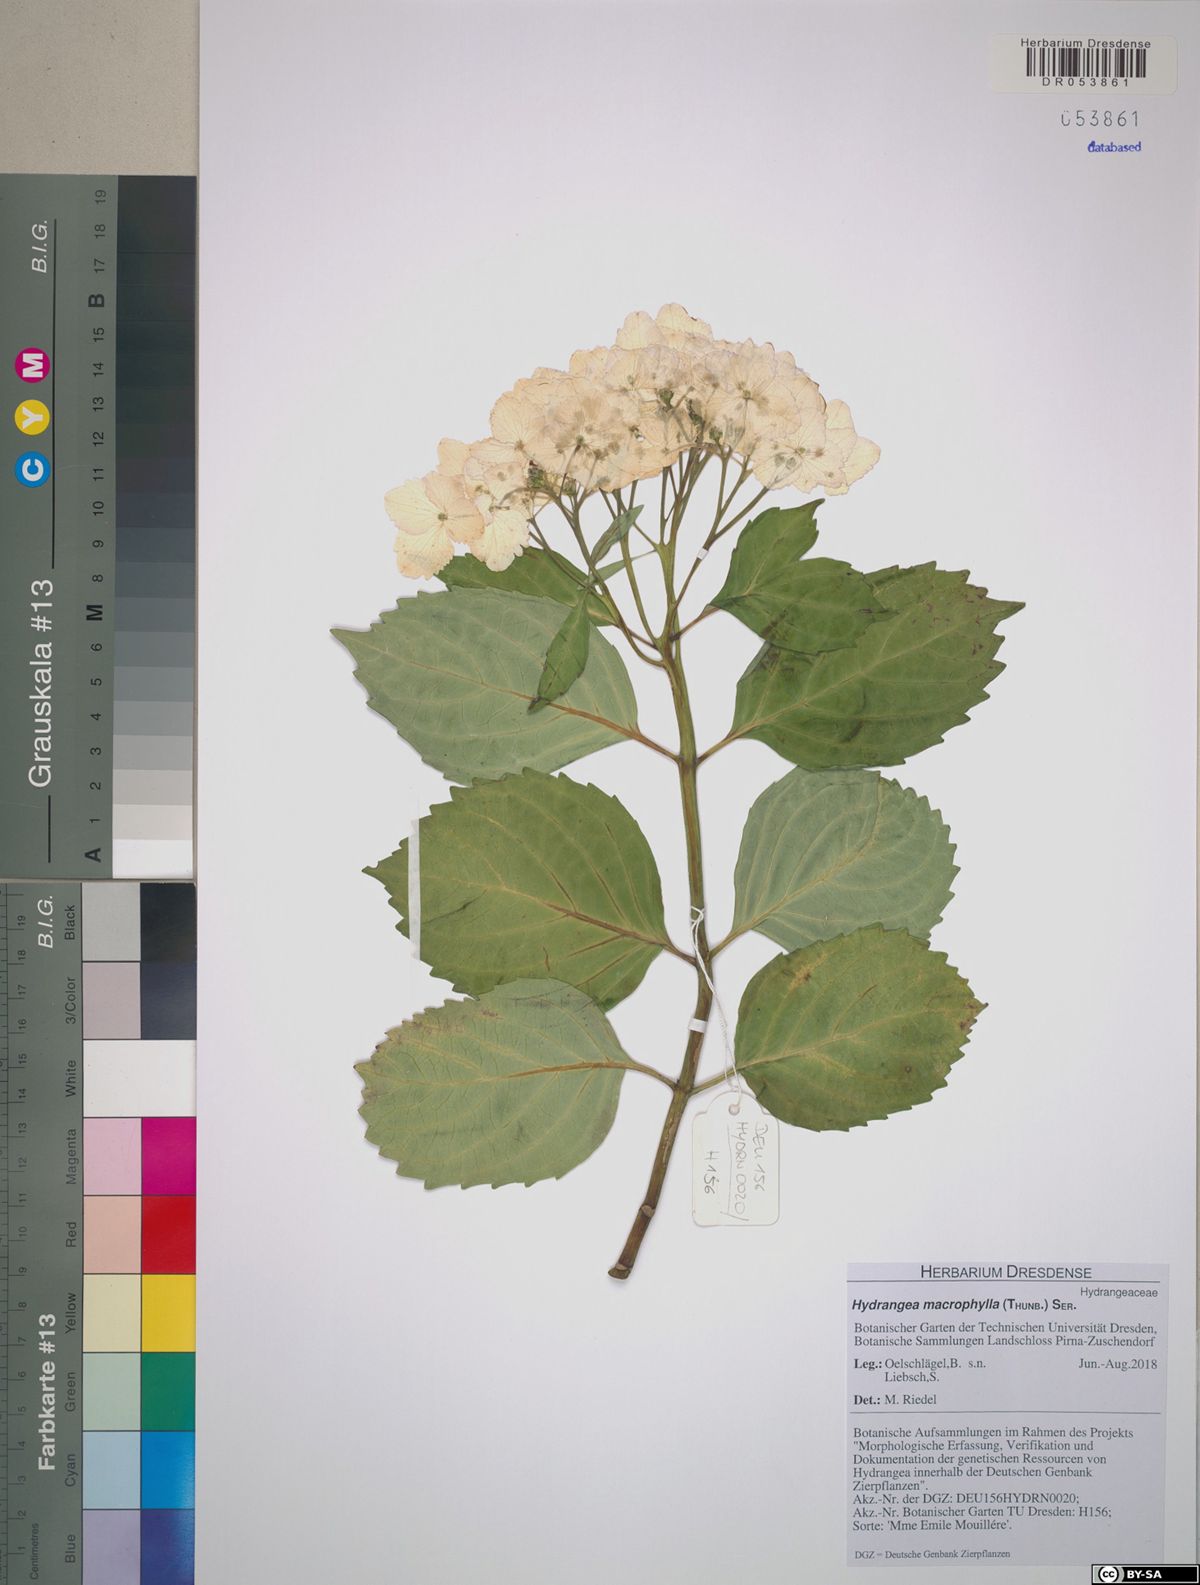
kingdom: Plantae
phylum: Tracheophyta
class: Magnoliopsida
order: Cornales
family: Hydrangeaceae
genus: Hydrangea
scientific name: Hydrangea macrophylla
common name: Hydrangea
